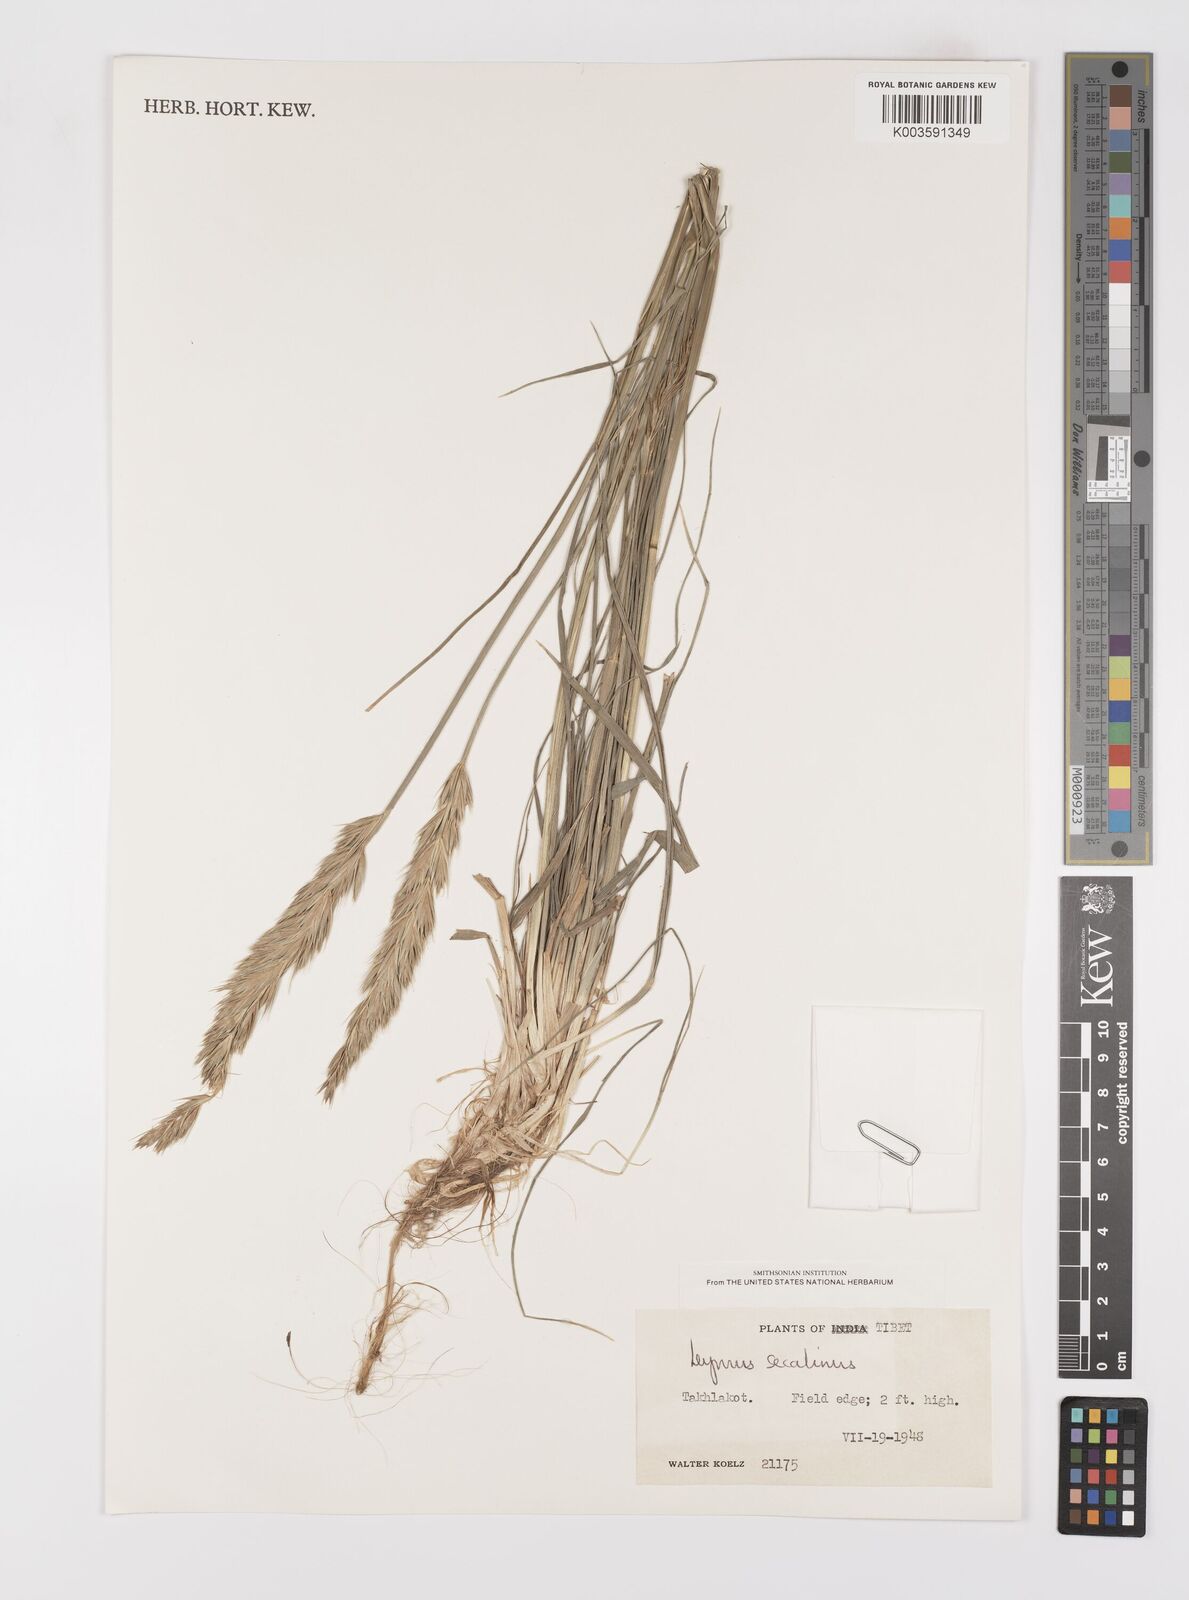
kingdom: Plantae
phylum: Tracheophyta
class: Liliopsida
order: Poales
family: Poaceae
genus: Leymus
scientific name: Leymus secalinus
